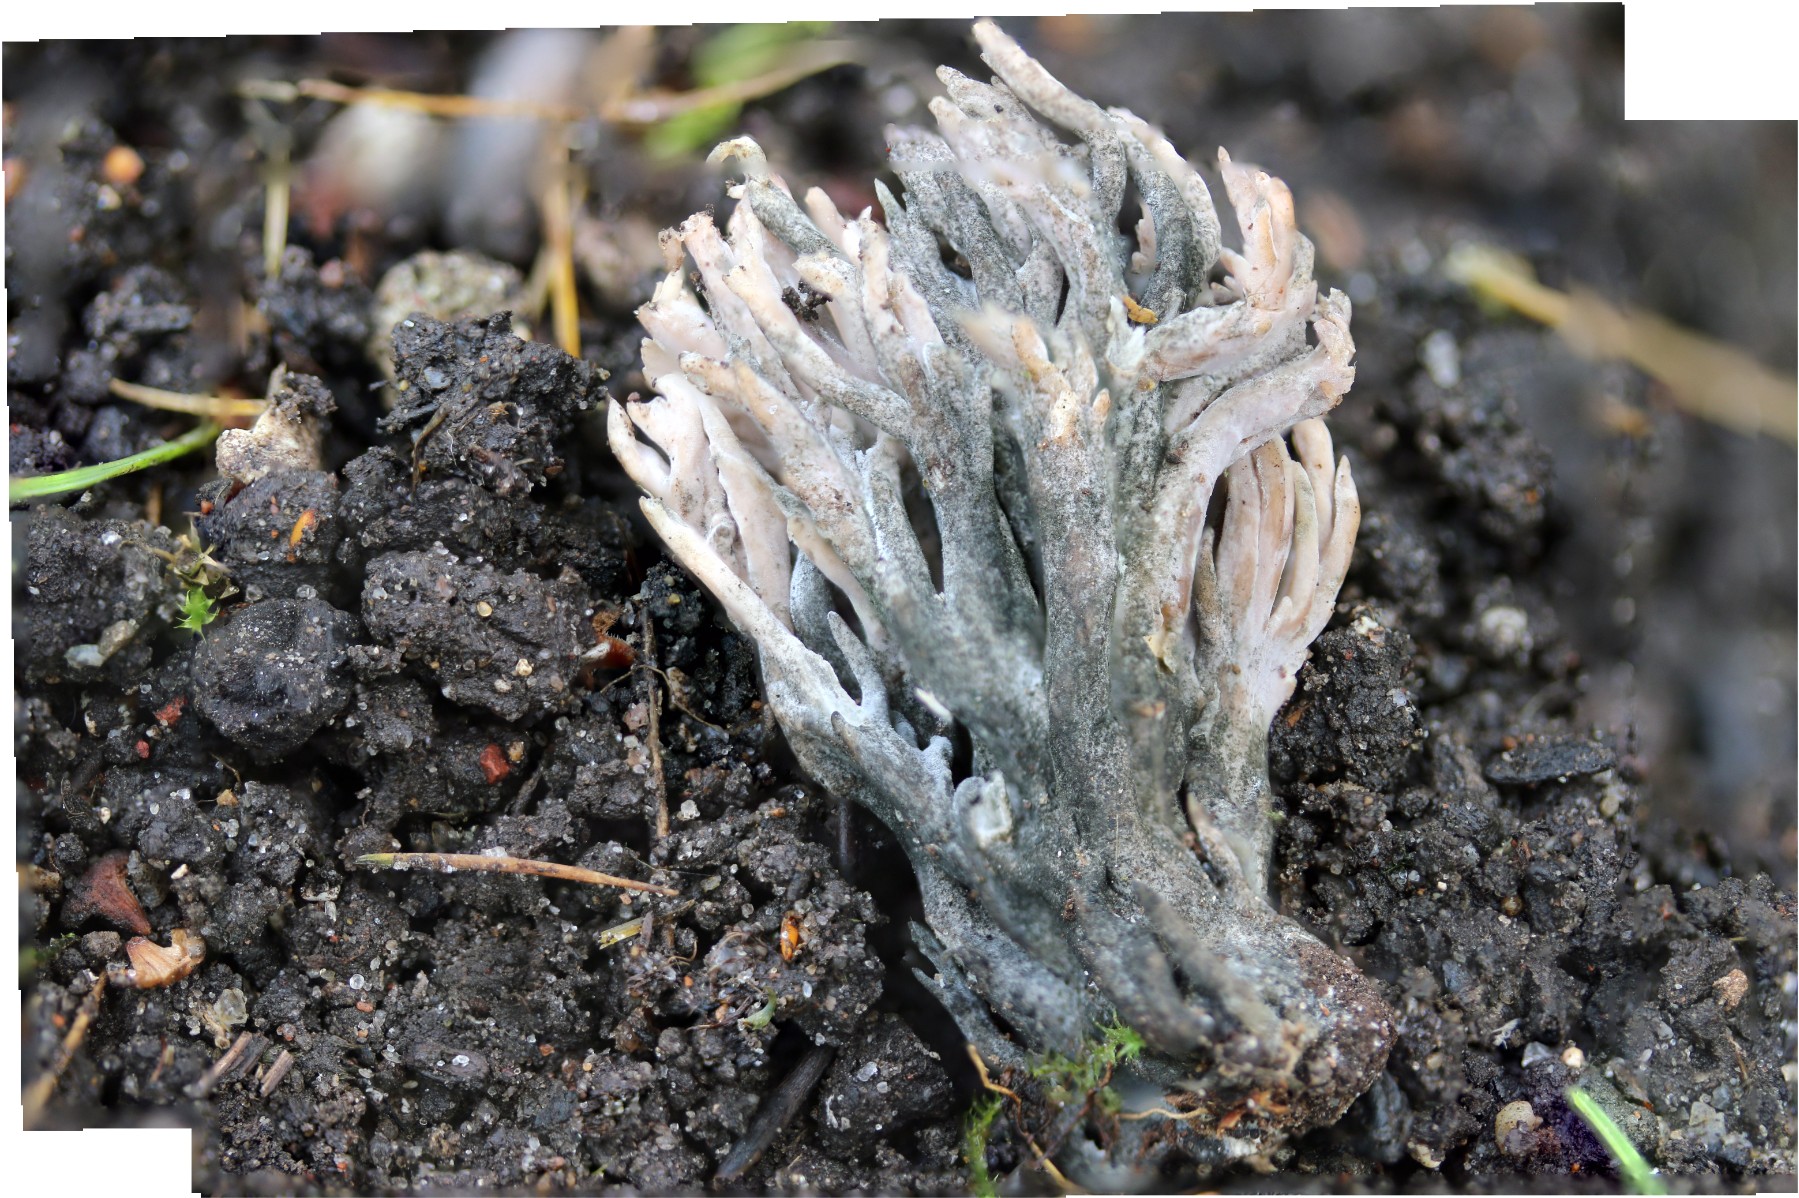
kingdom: Fungi
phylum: Ascomycota
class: Sordariomycetes
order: Sordariales
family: Helminthosphaeriaceae
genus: Helminthosphaeria
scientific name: Helminthosphaeria clavariarum
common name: trold-svampesnyltekerne
